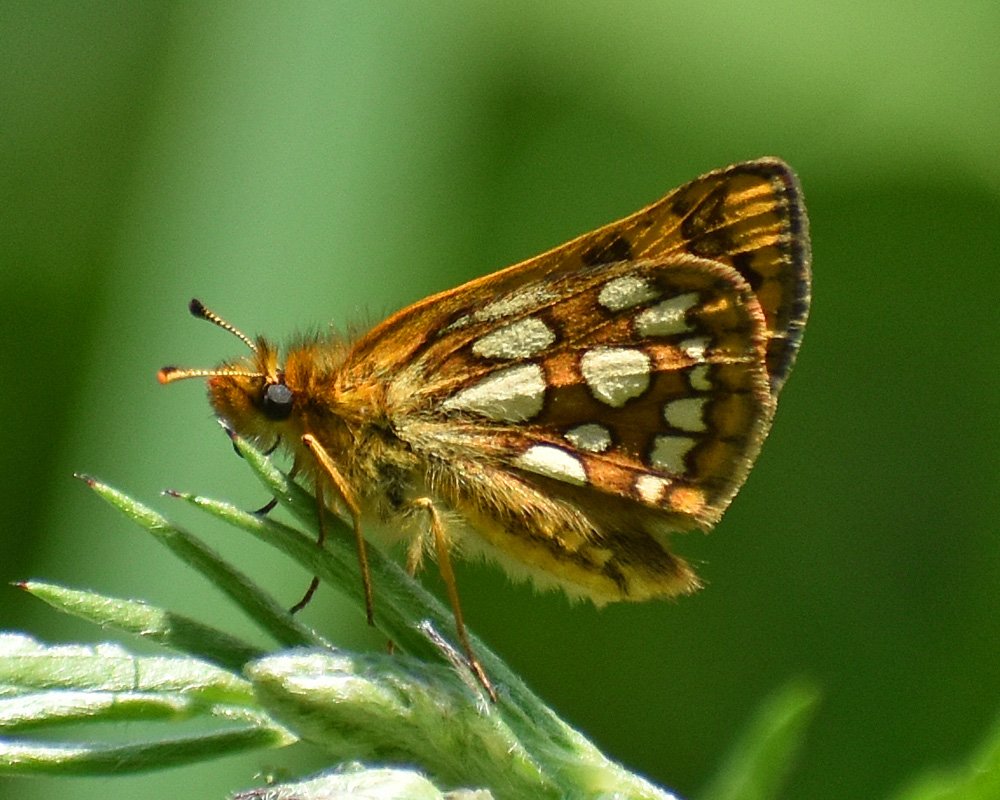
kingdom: Animalia
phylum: Arthropoda
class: Insecta
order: Lepidoptera
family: Hesperiidae
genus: Carterocephalus
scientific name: Carterocephalus palaemon
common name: Chequered Skipper
